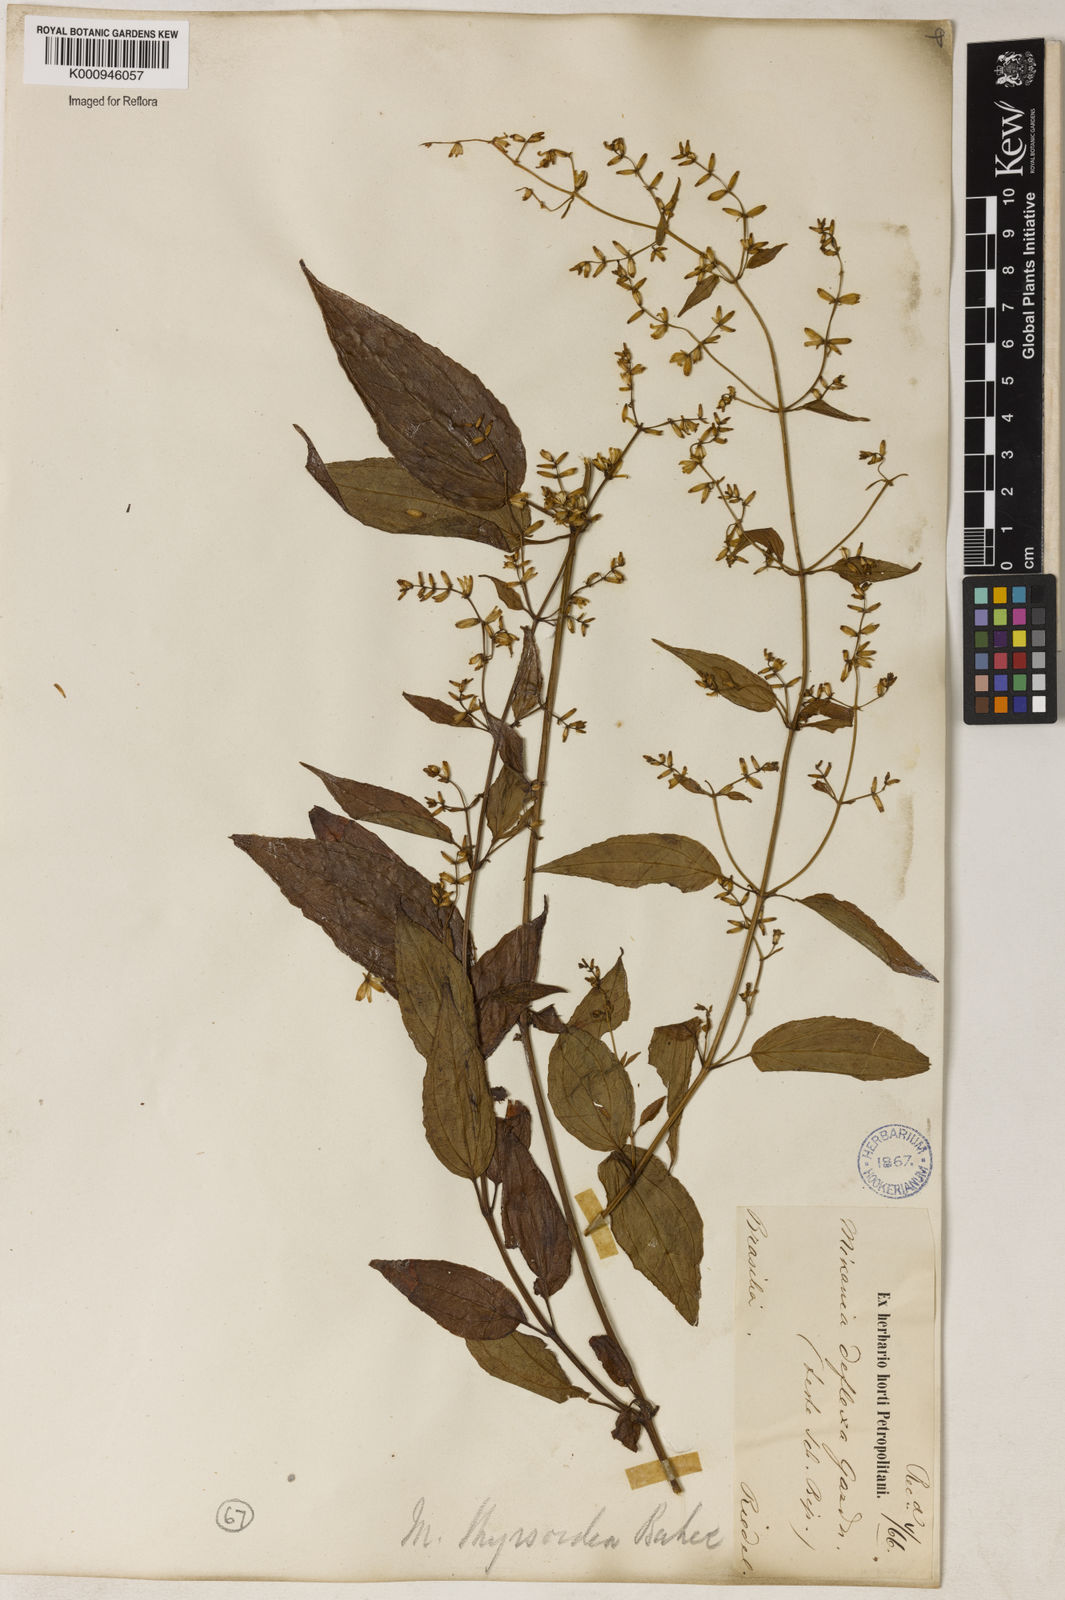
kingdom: Plantae
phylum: Tracheophyta
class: Magnoliopsida
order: Asterales
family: Asteraceae
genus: Mikania
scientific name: Mikania lundiana
